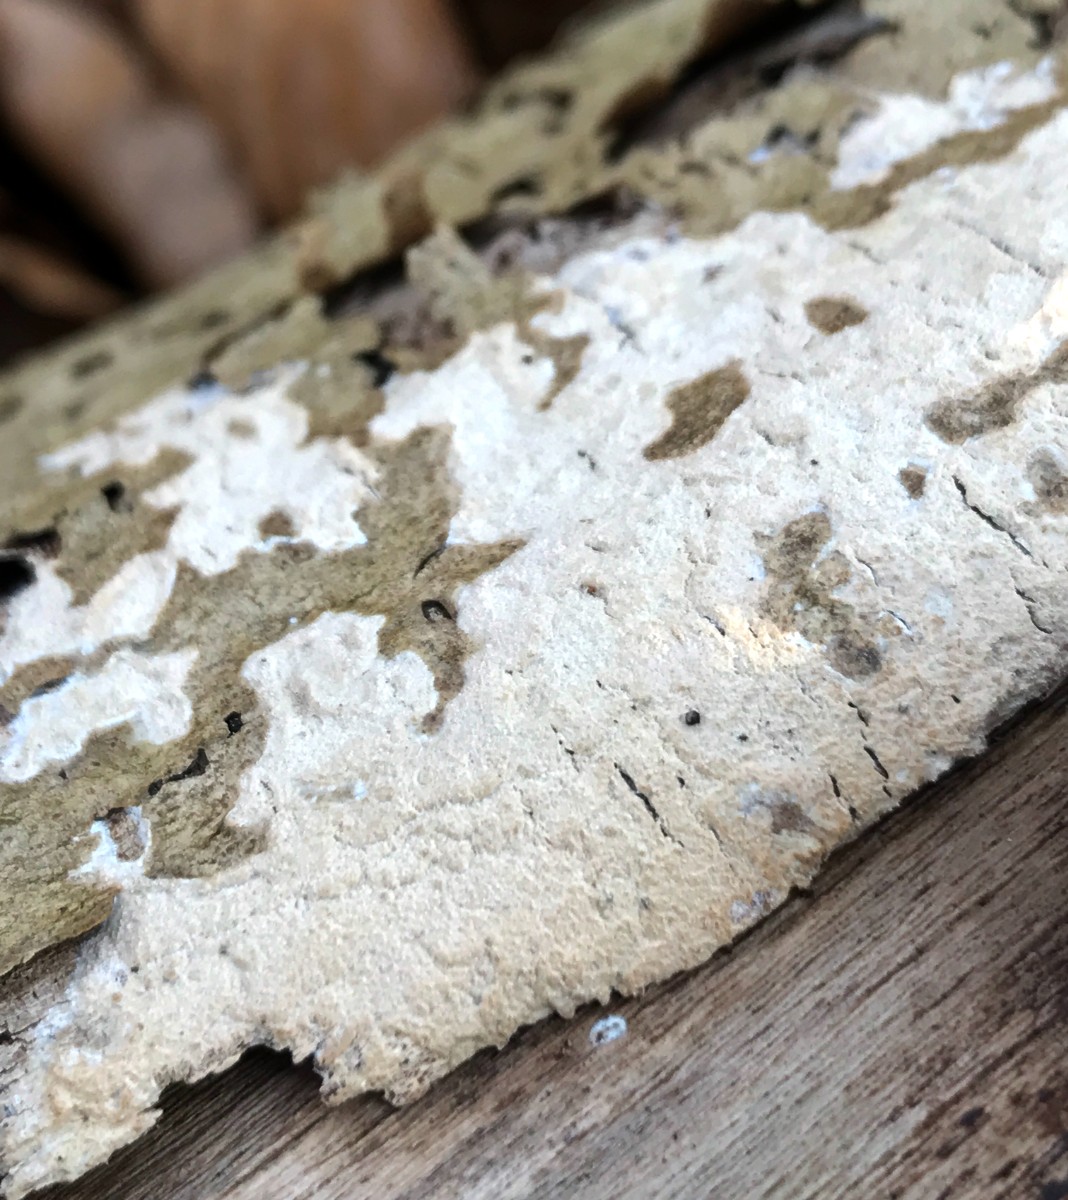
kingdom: Fungi
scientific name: Fungi
